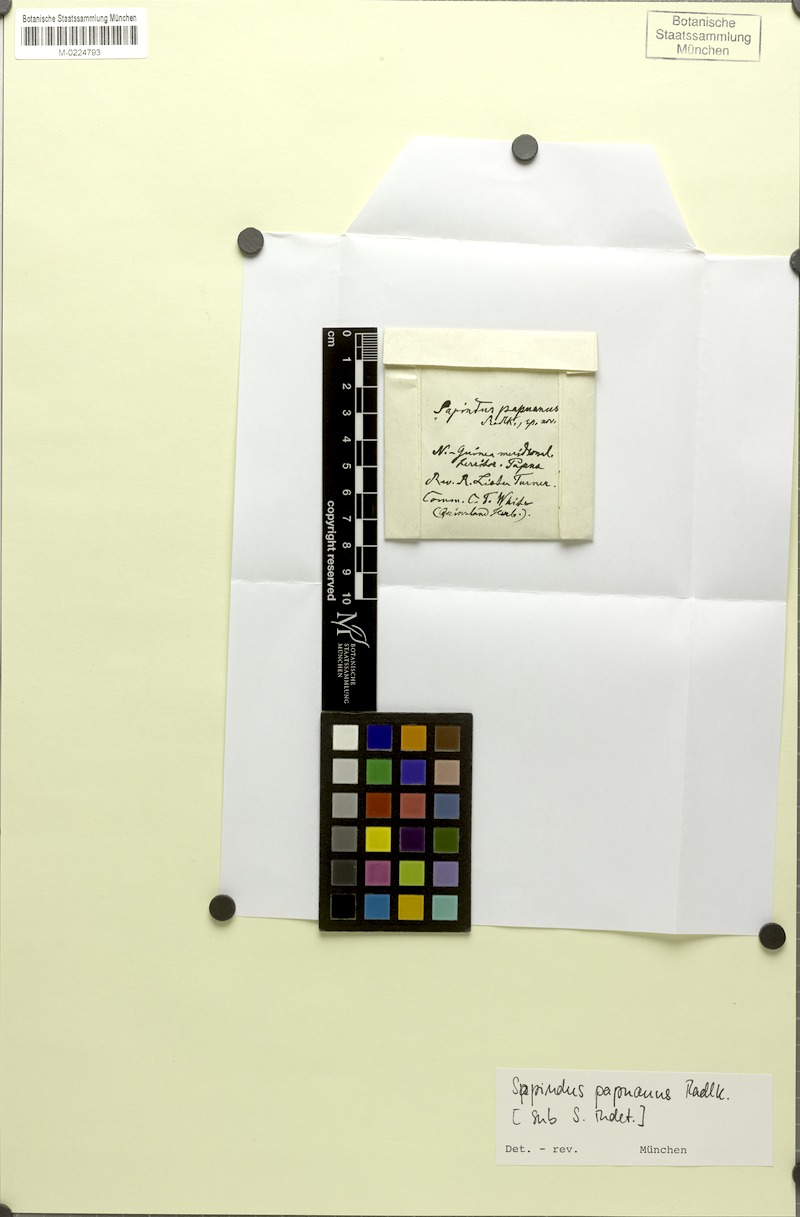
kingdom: Plantae
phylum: Tracheophyta
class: Magnoliopsida
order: Sapindales
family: Sapindaceae
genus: Atalaya
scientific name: Atalaya papuana
